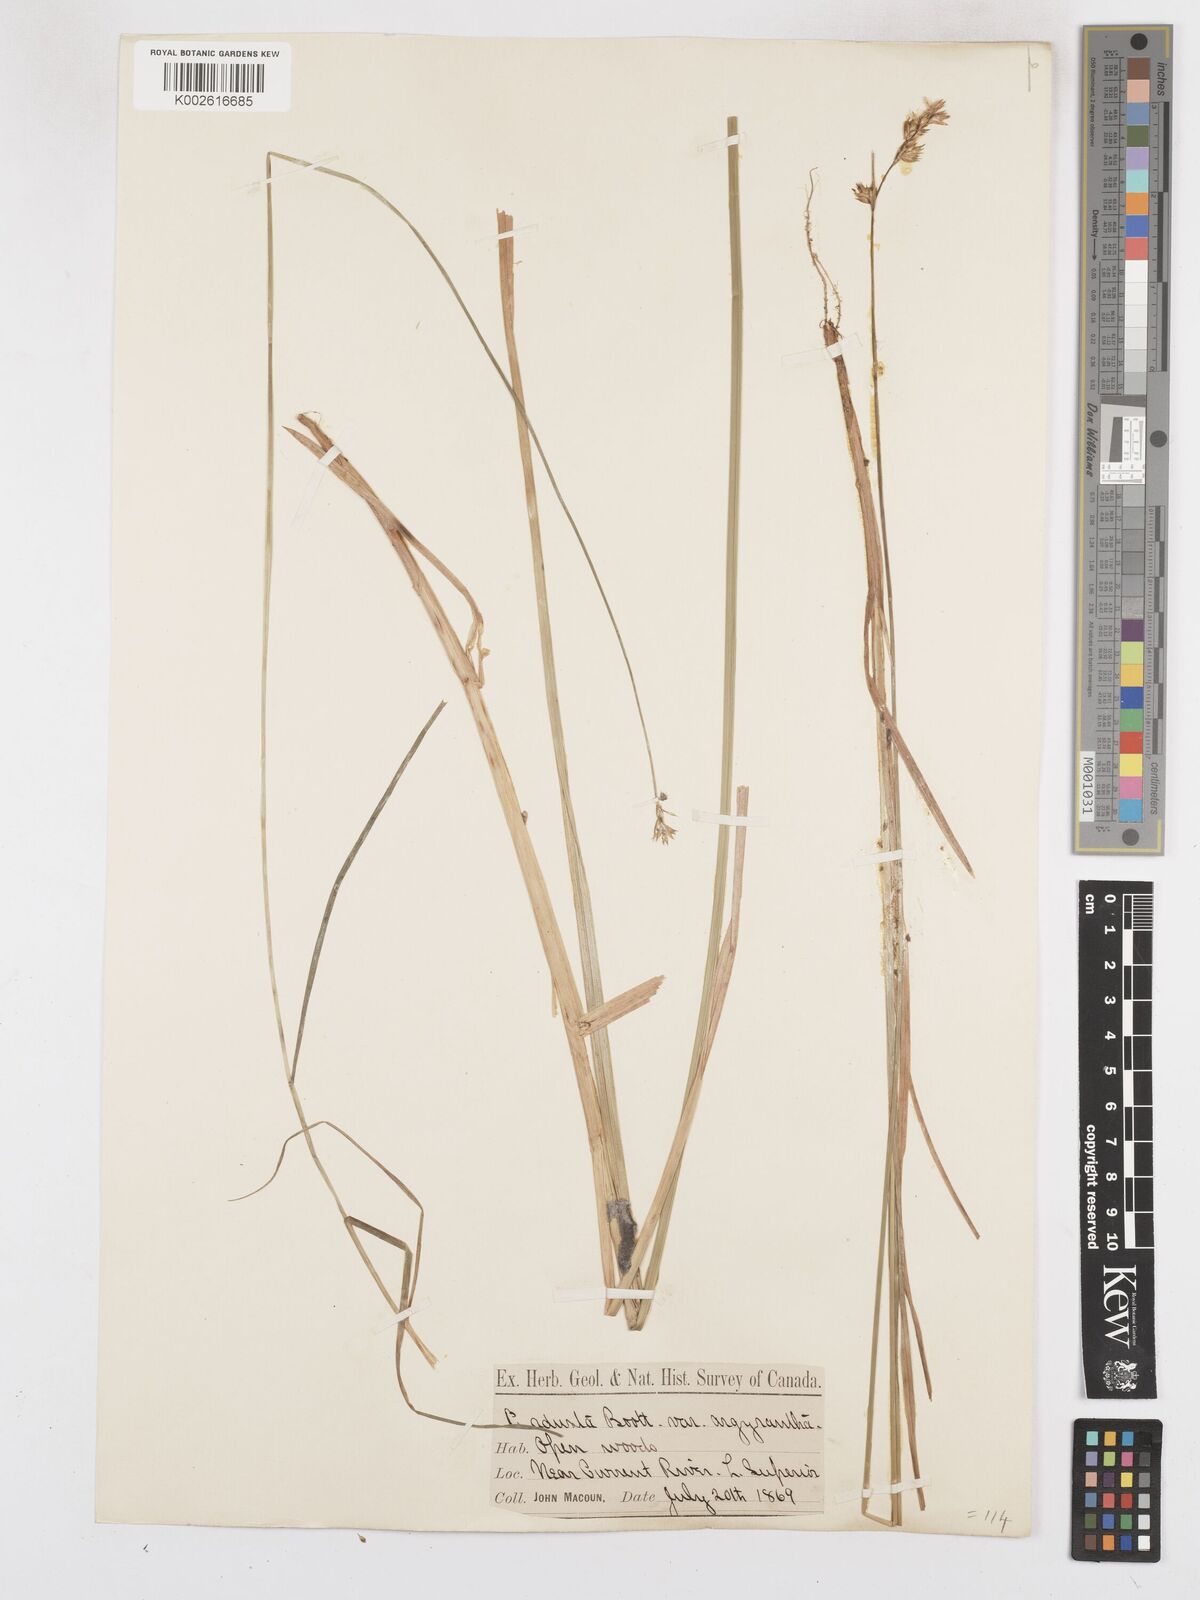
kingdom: Plantae
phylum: Tracheophyta
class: Liliopsida
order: Poales
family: Cyperaceae
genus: Carex
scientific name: Carex argyrantha
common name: Silvery-flowered sedge
